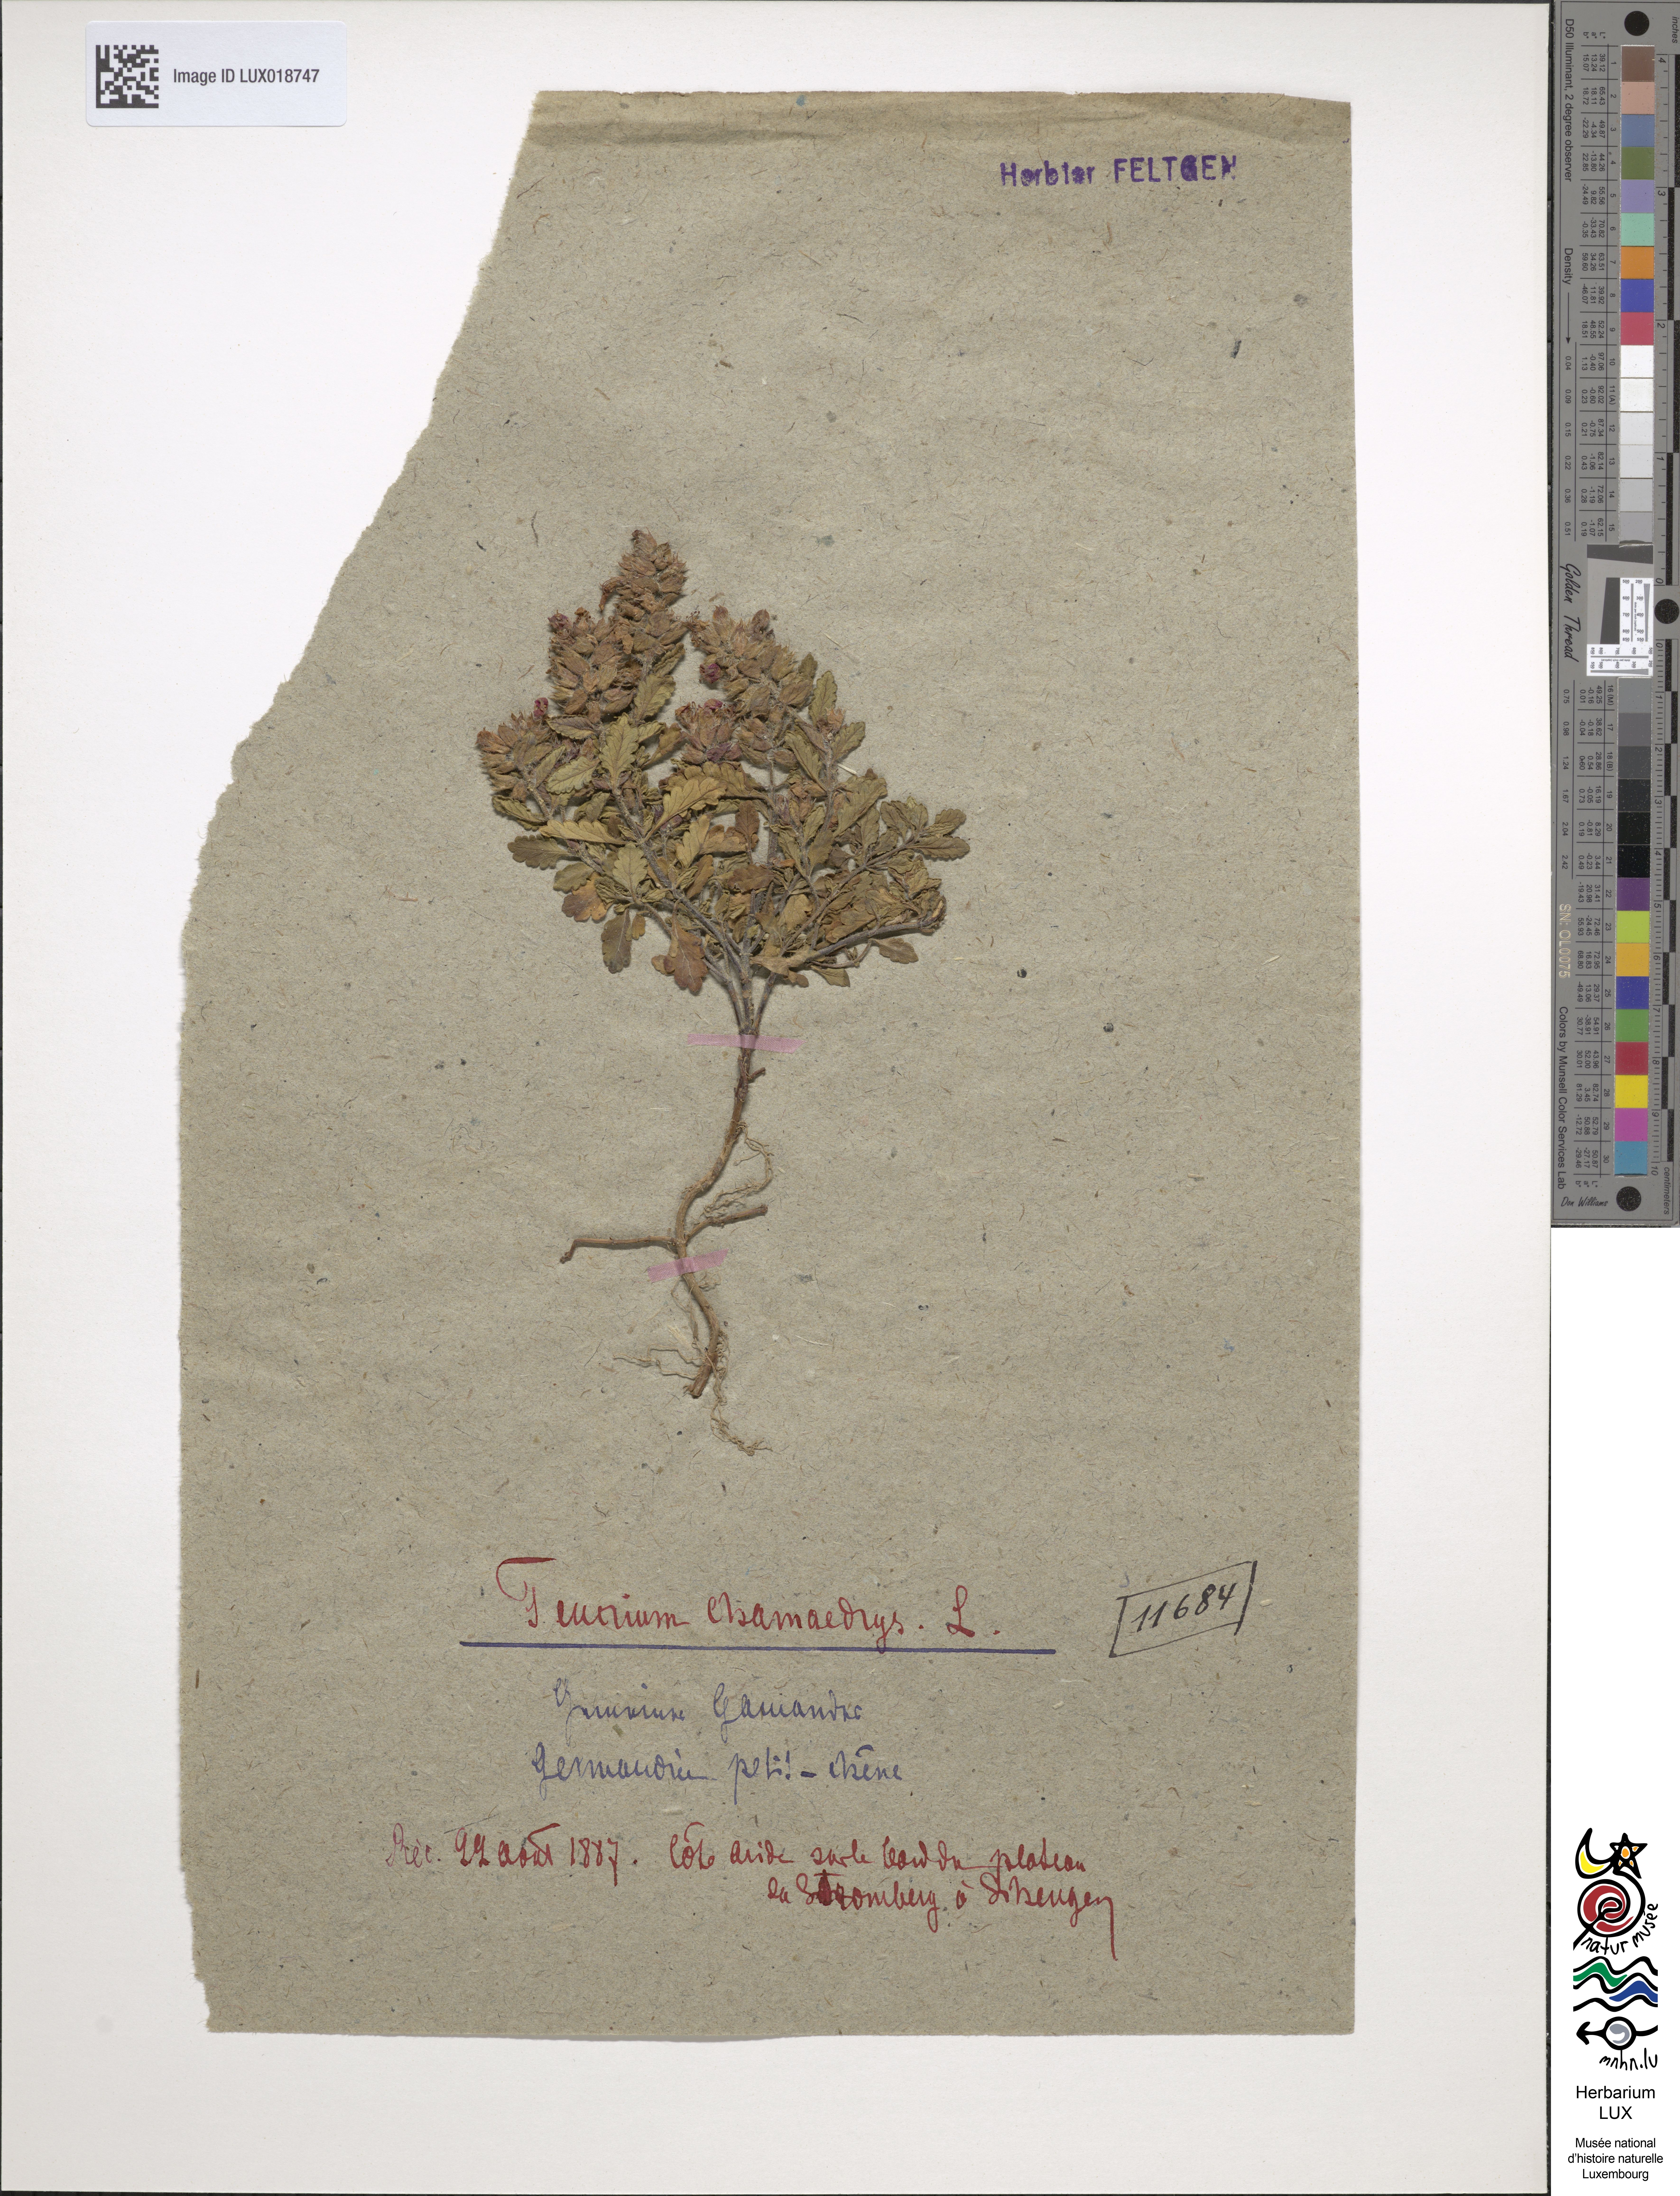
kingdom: Plantae
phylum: Tracheophyta
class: Magnoliopsida
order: Lamiales
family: Lamiaceae
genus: Teucrium
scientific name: Teucrium chamaedrys
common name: Wall germander
